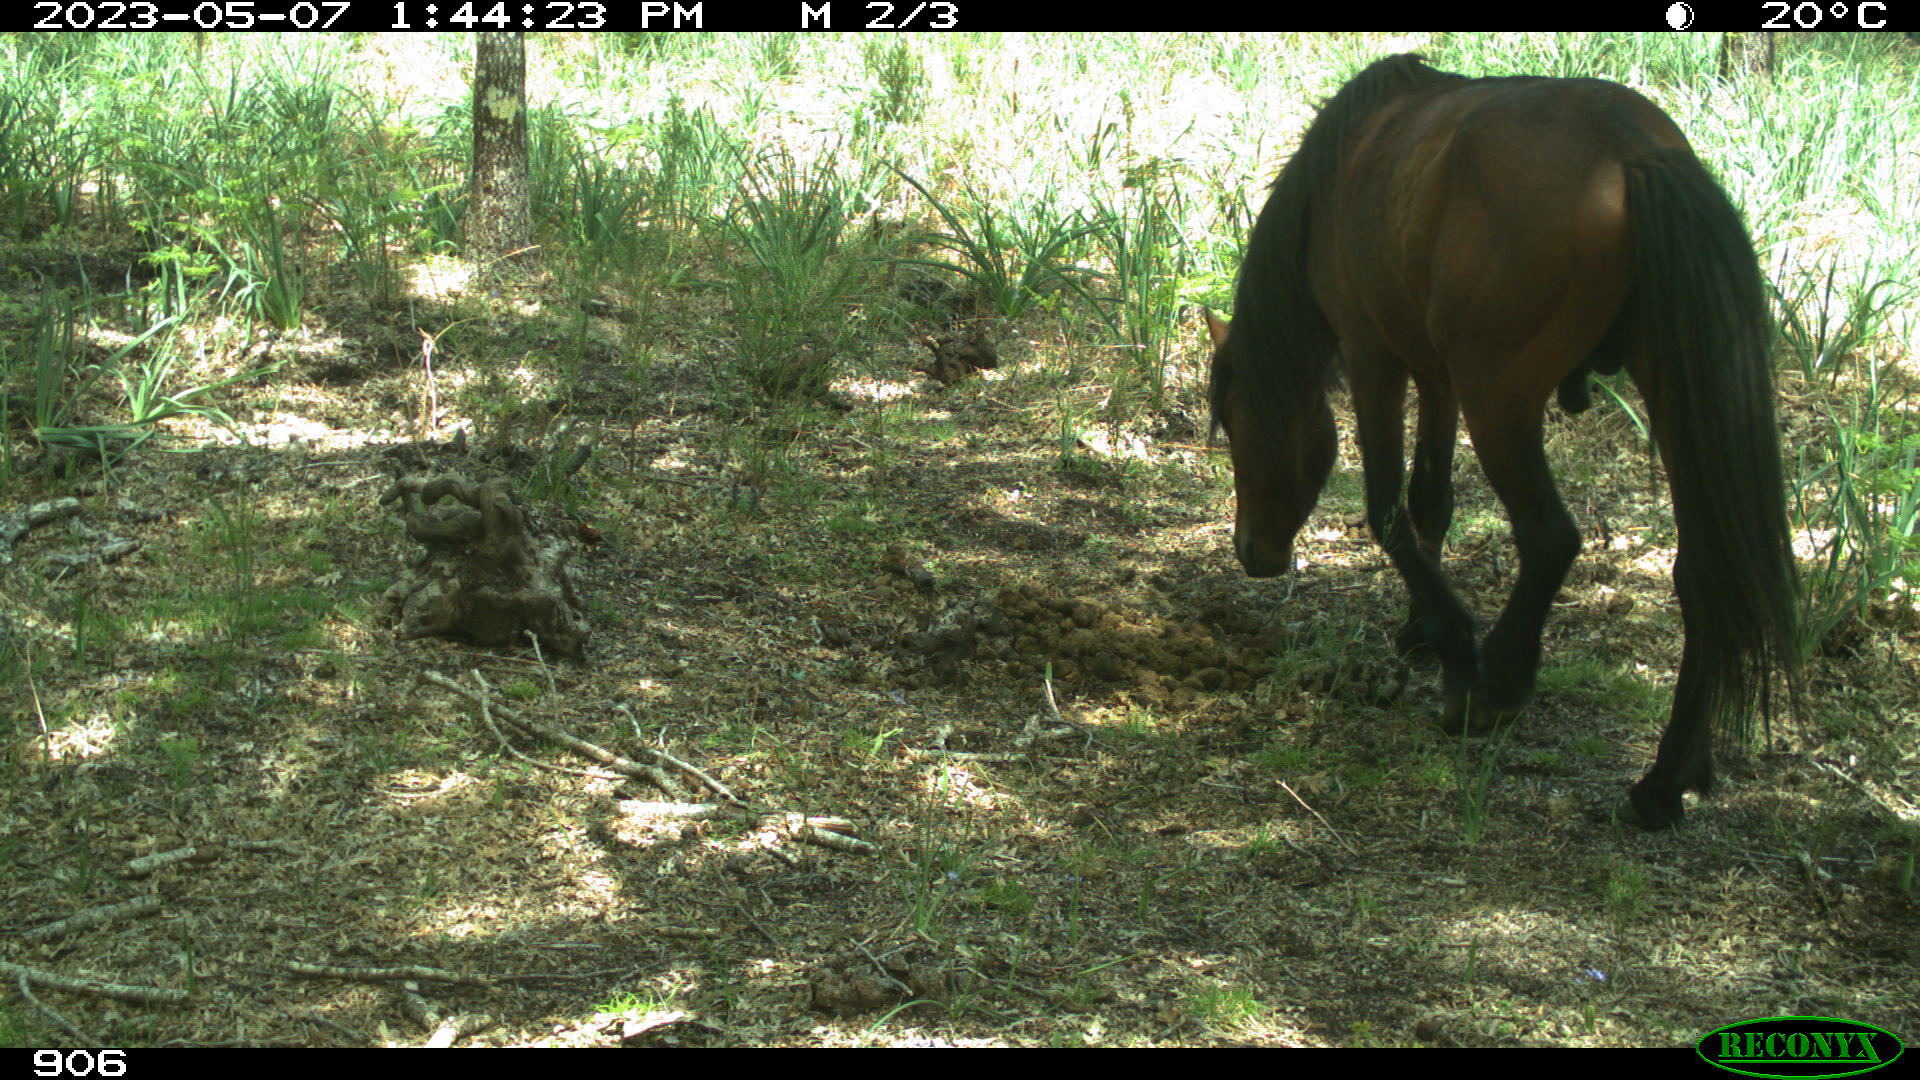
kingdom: Animalia
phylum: Chordata
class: Mammalia
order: Perissodactyla
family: Equidae
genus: Equus
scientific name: Equus caballus
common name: Horse
